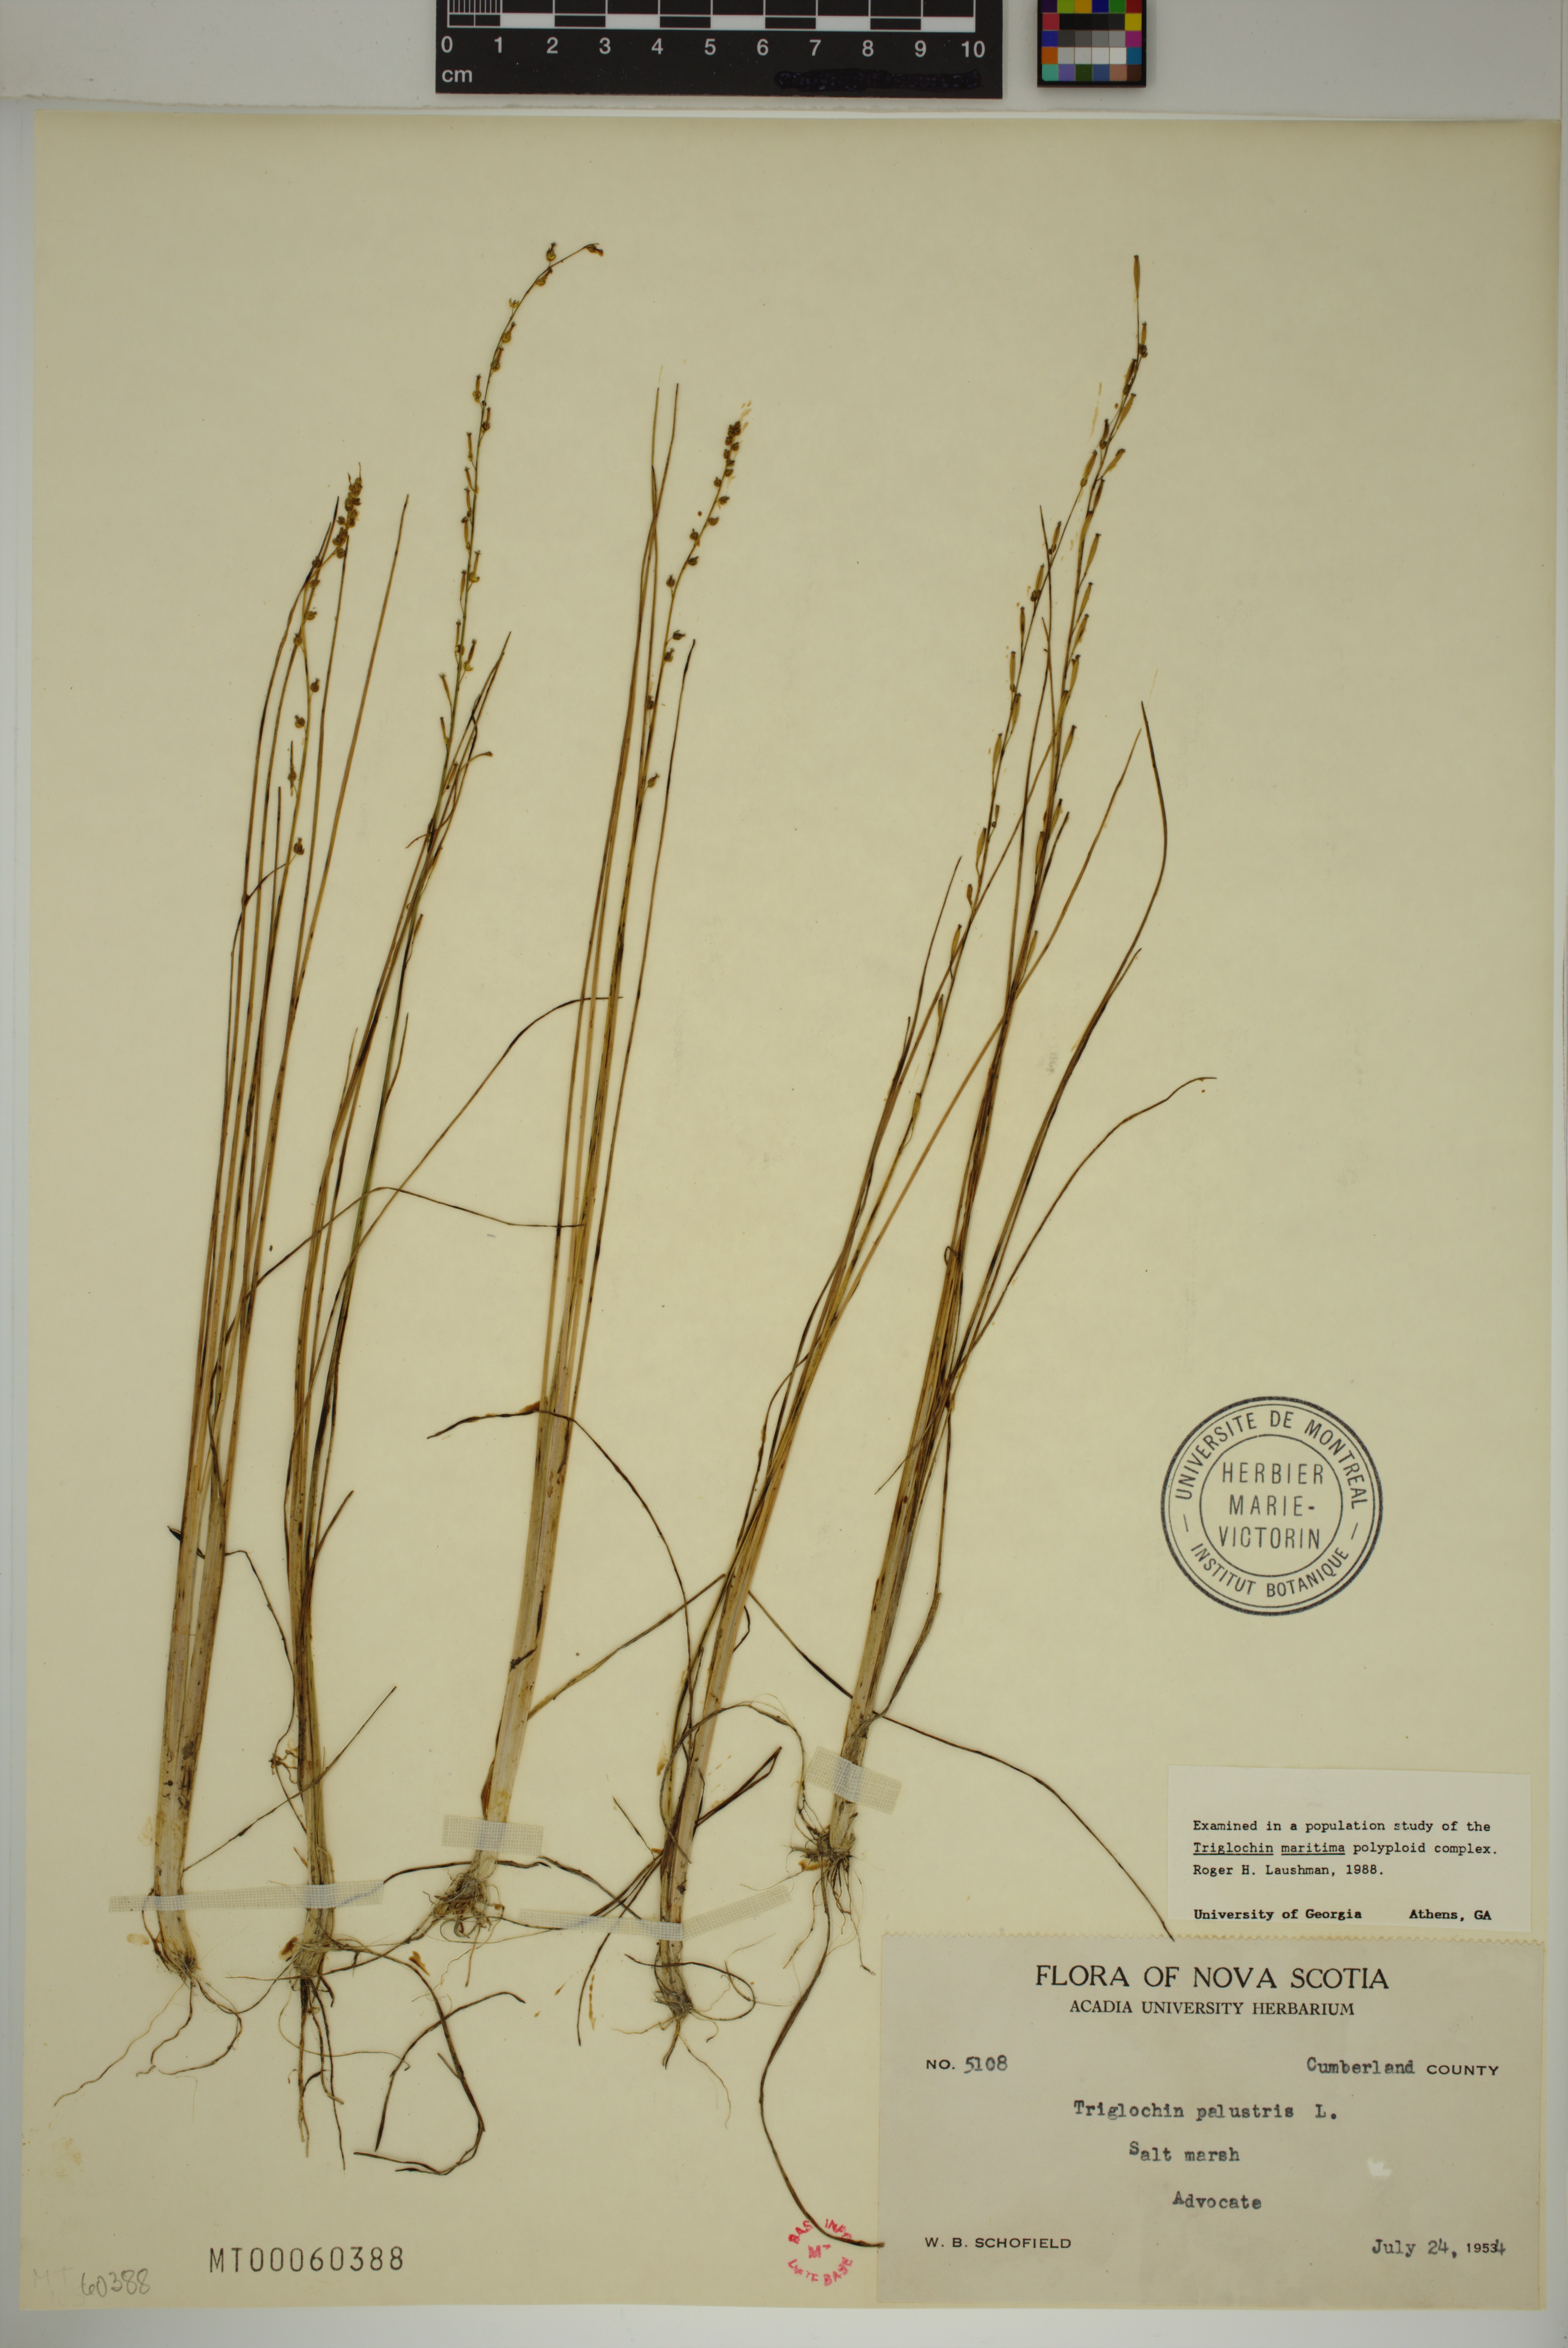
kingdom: Plantae
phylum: Tracheophyta
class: Liliopsida
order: Alismatales
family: Juncaginaceae
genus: Triglochin
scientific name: Triglochin palustris
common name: Marsh arrowgrass
